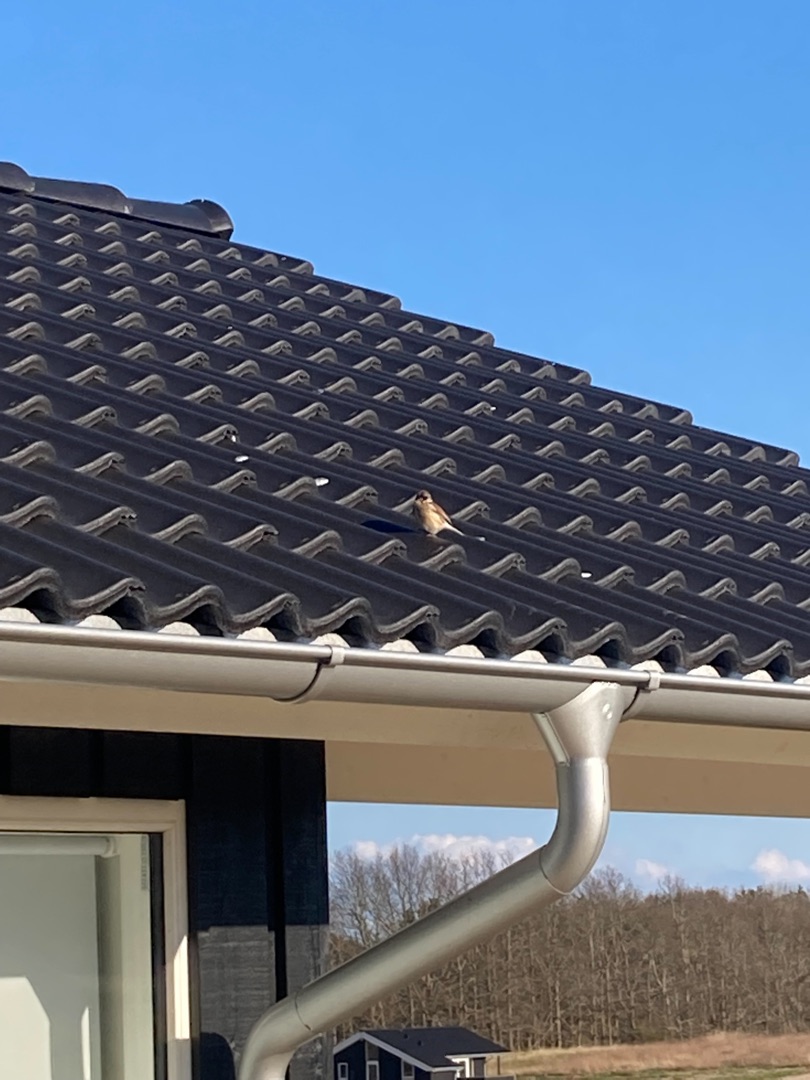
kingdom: Animalia
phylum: Chordata
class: Aves
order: Passeriformes
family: Fringillidae
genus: Linaria
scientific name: Linaria cannabina
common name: Tornirisk
